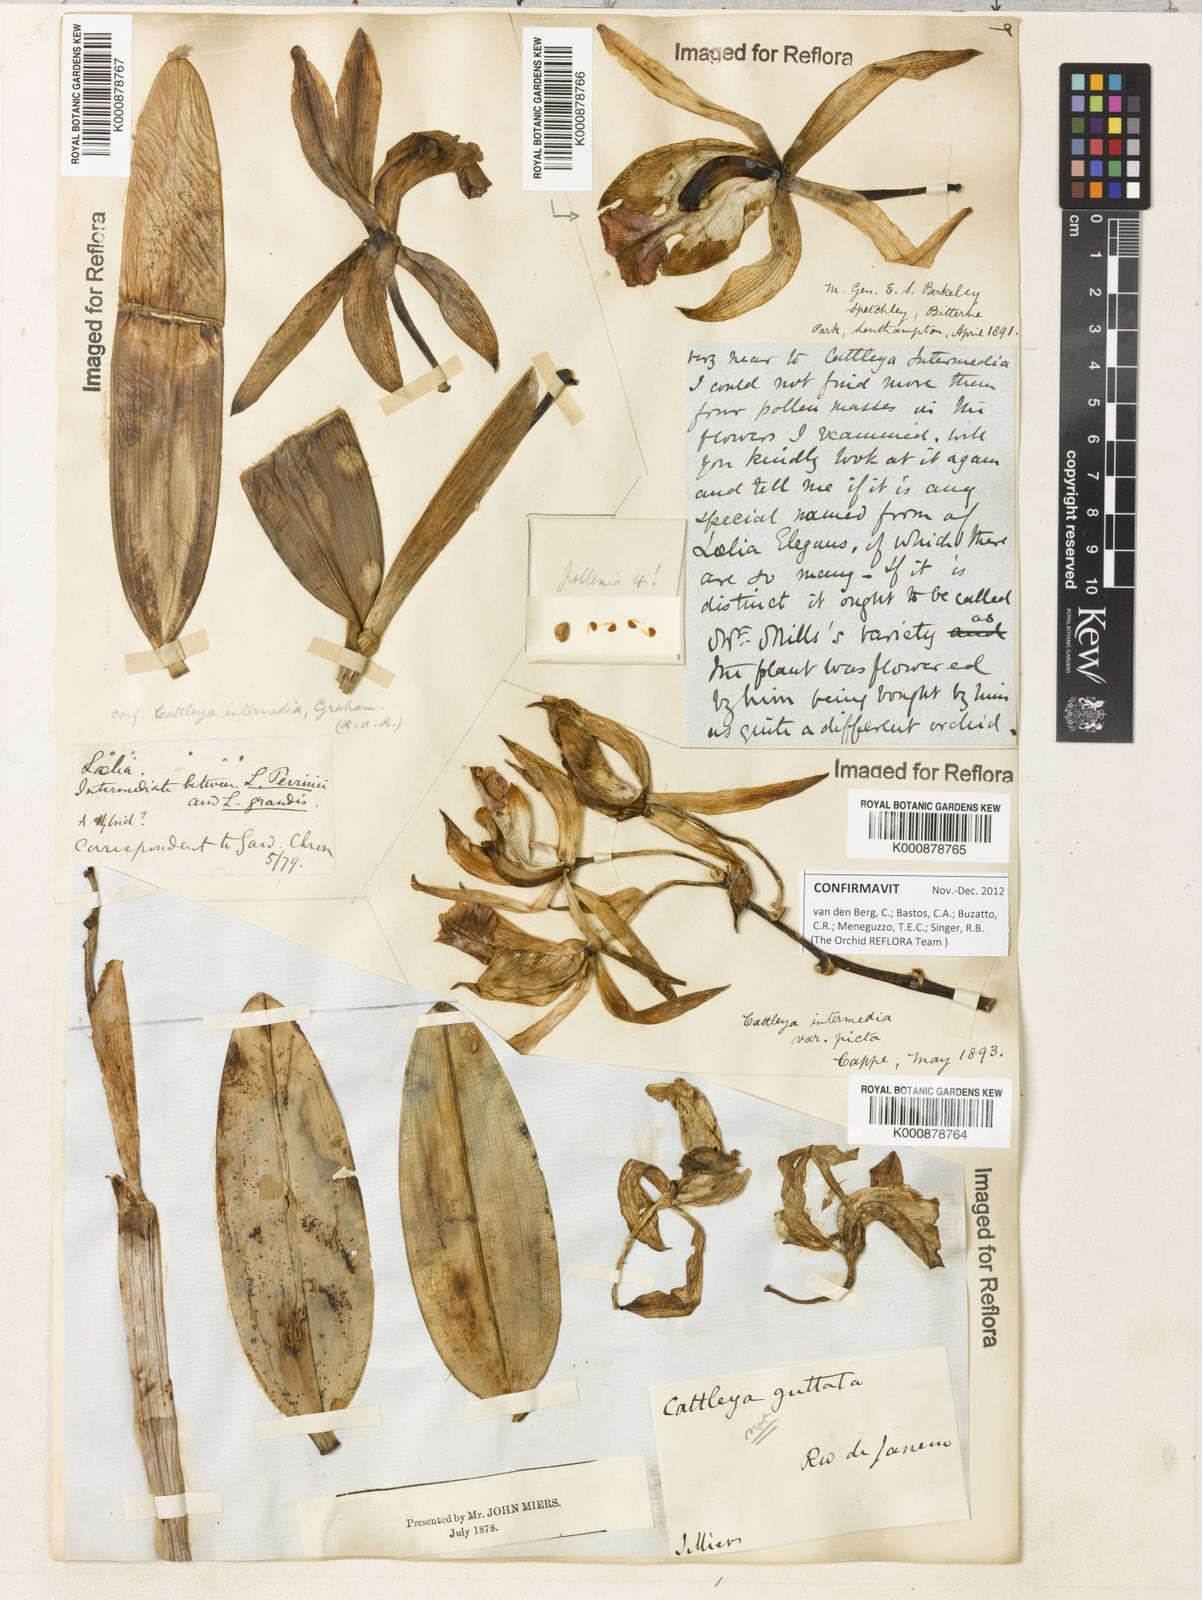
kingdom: Plantae
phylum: Tracheophyta
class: Liliopsida
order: Asparagales
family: Orchidaceae
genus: Cattleya
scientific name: Cattleya intermedia
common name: Intermediate cattleya
